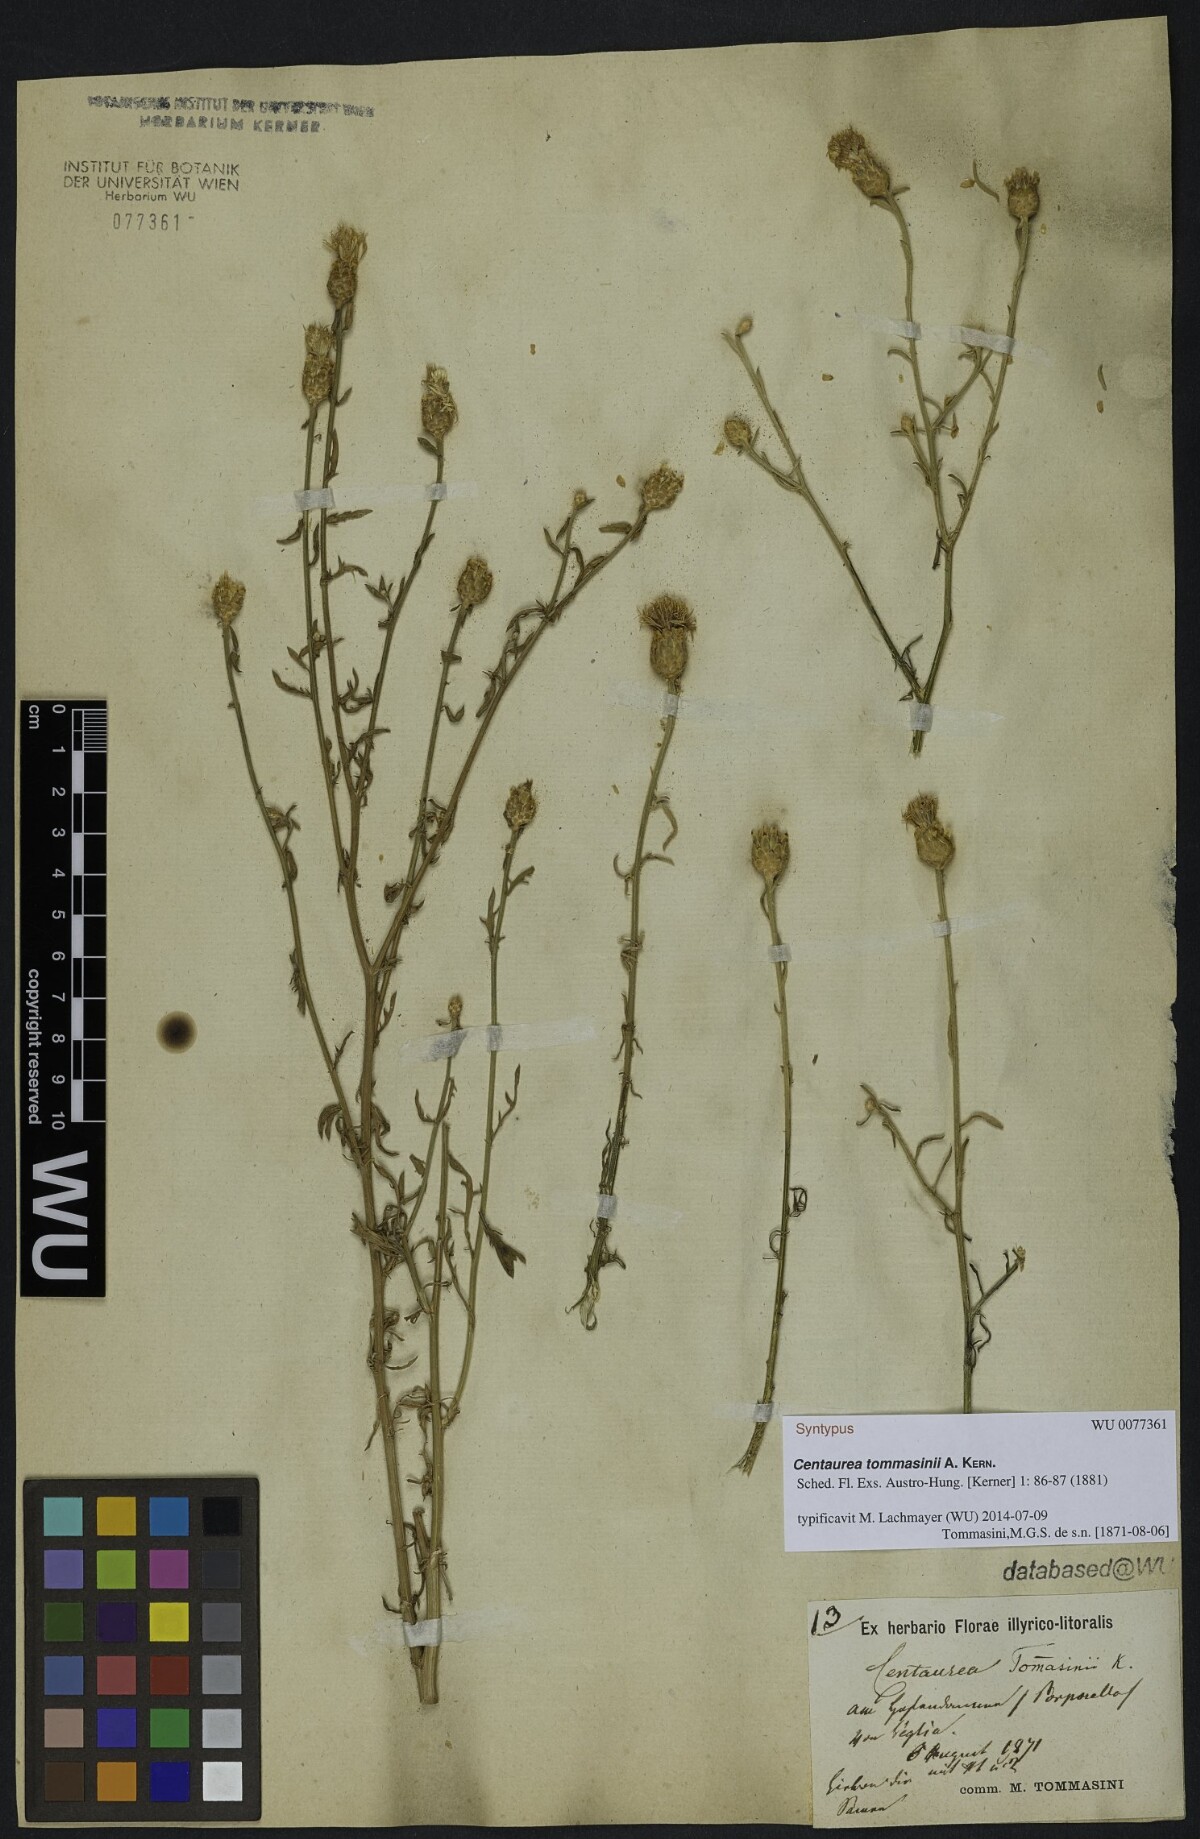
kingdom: Plantae
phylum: Tracheophyta
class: Magnoliopsida
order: Asterales
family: Asteraceae
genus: Centaurea
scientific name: Centaurea tommasinii
